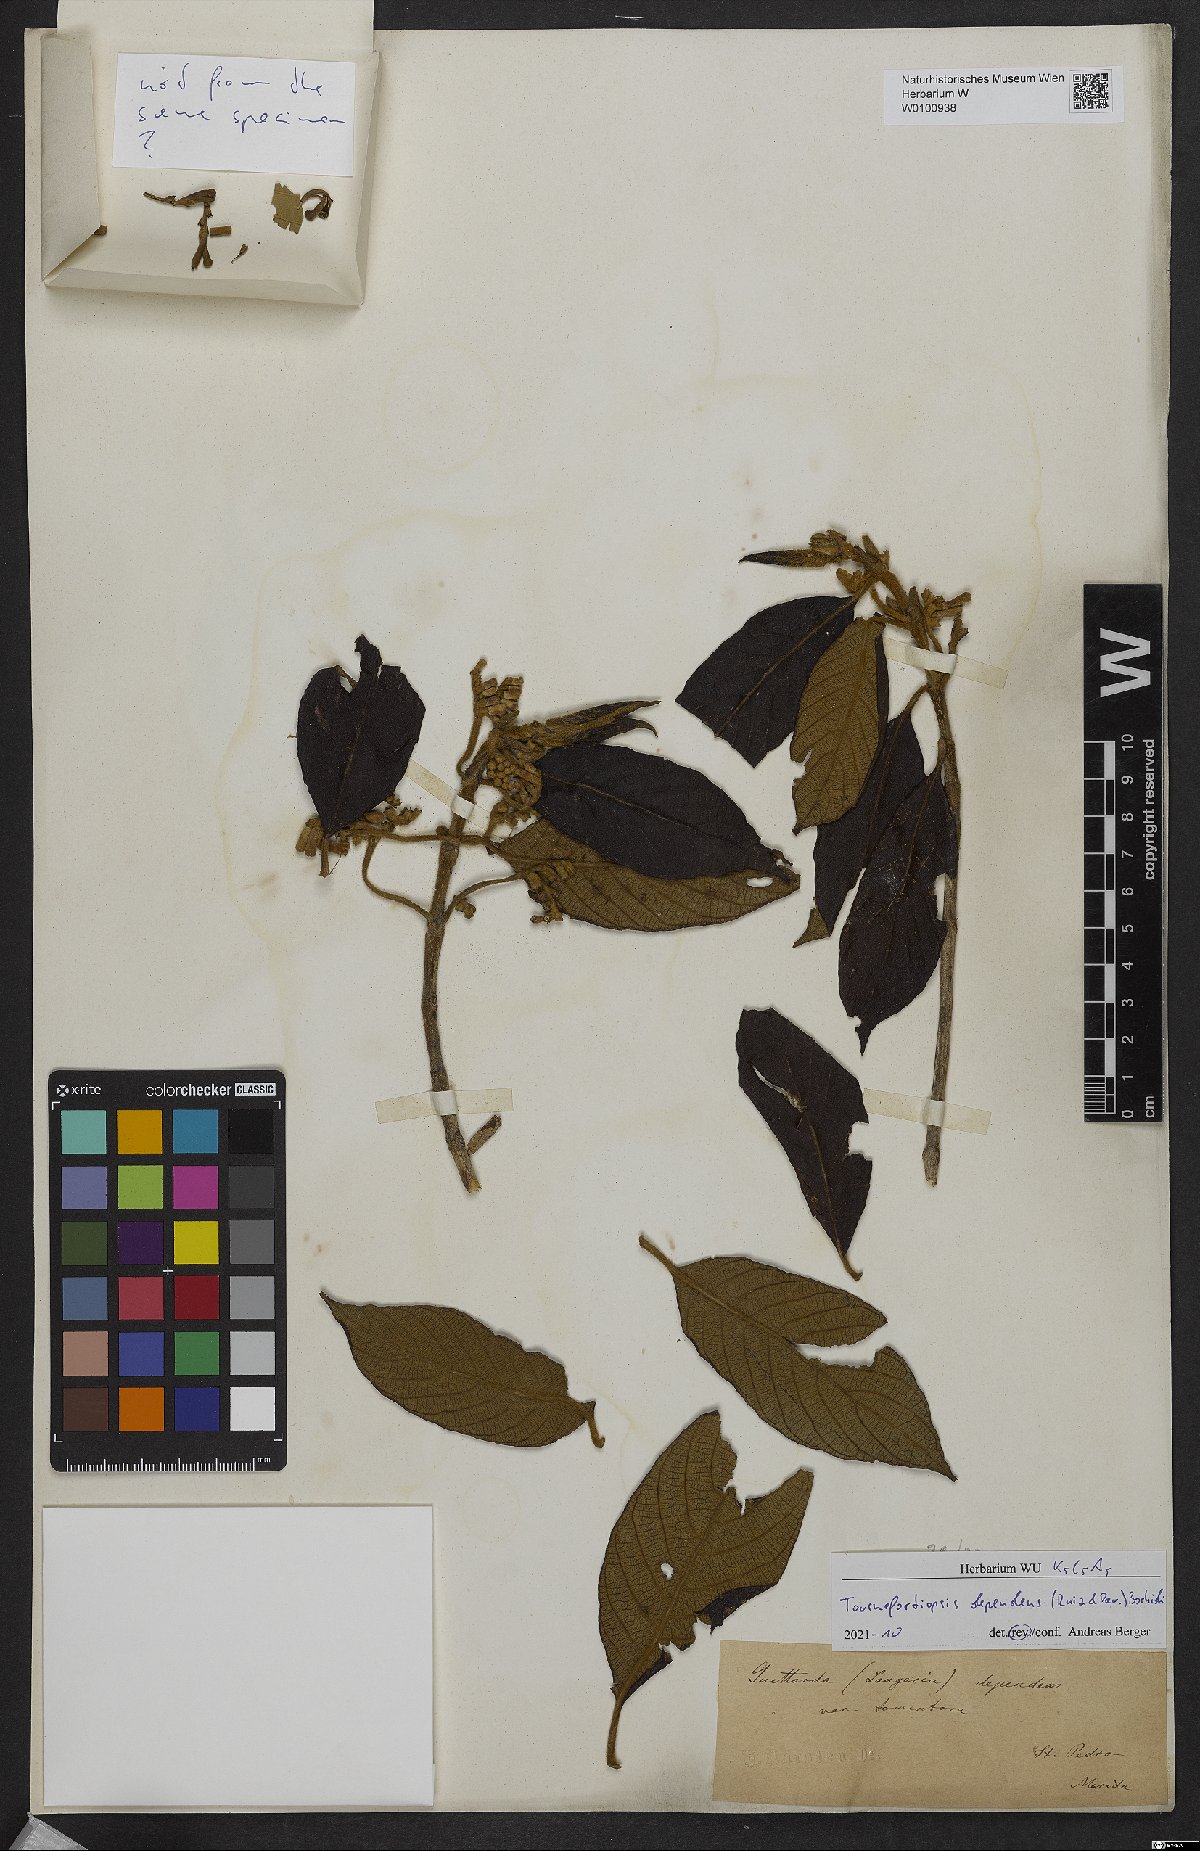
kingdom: Plantae
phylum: Tracheophyta
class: Magnoliopsida
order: Gentianales
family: Rubiaceae
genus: Tournefortiopsis
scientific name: Tournefortiopsis dependens
